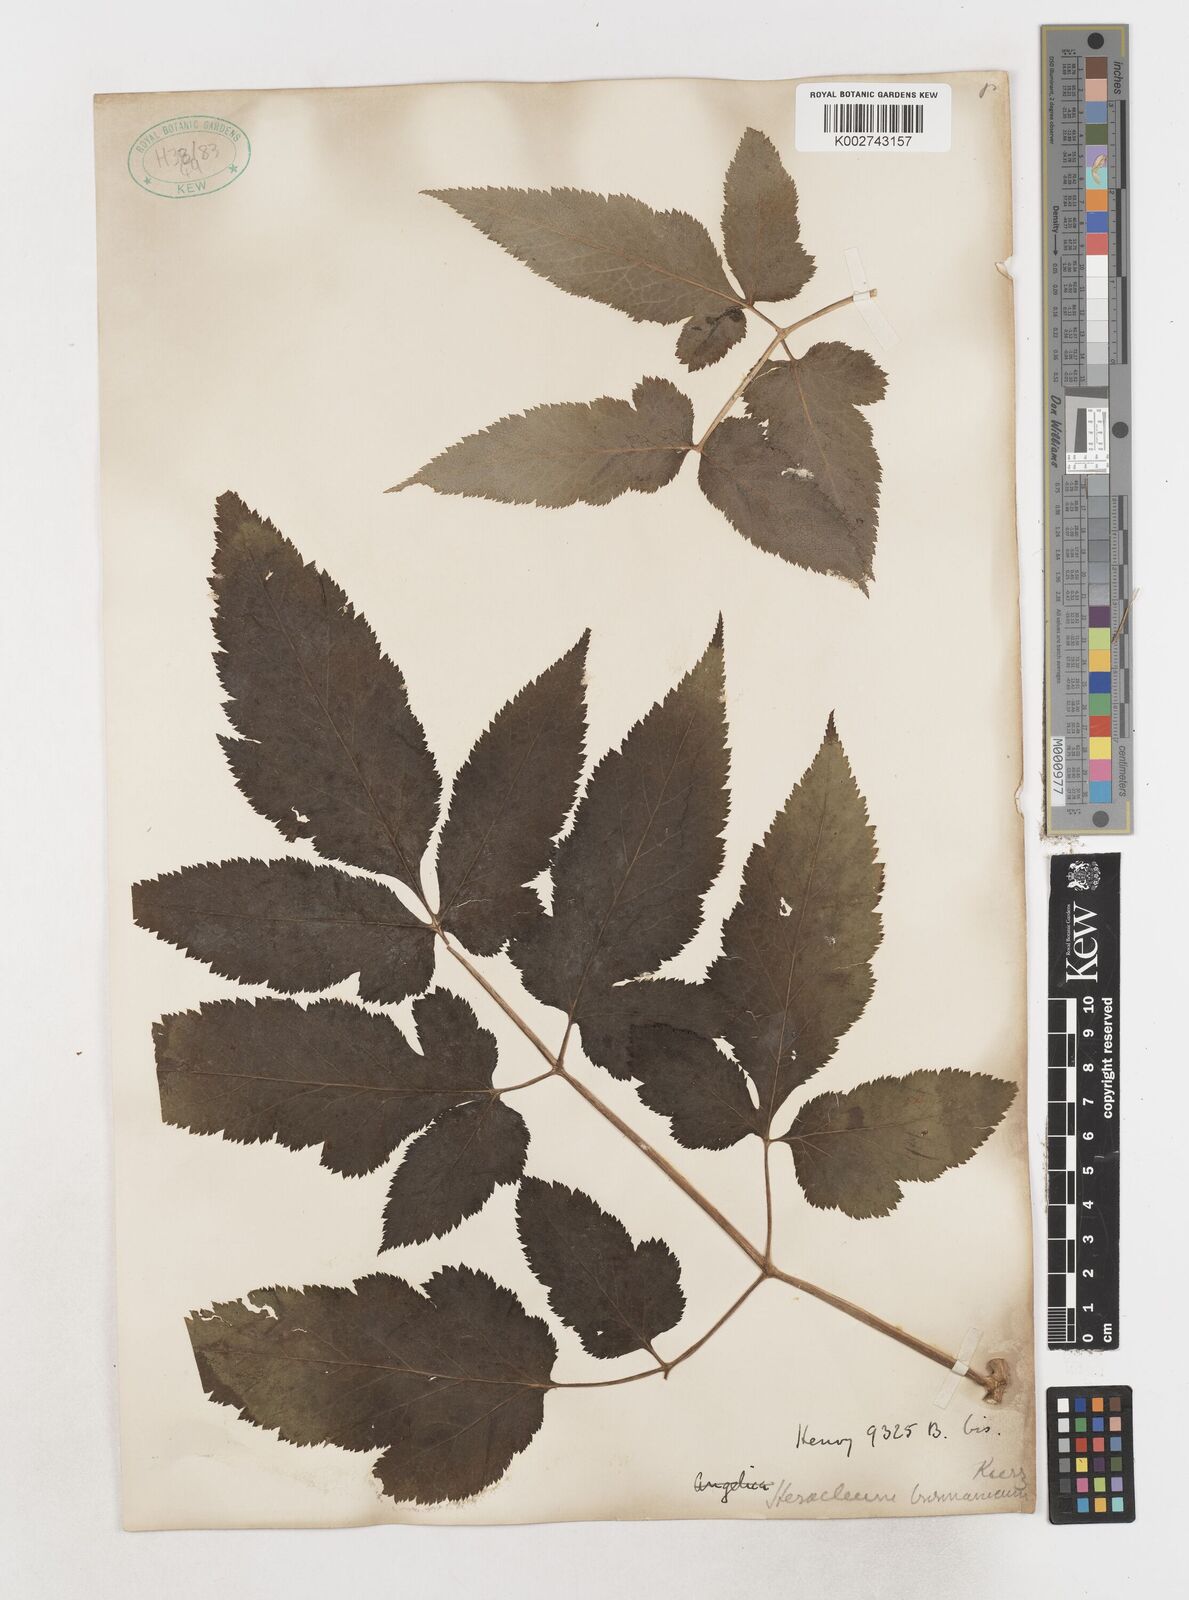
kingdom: Plantae
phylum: Tracheophyta
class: Magnoliopsida
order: Apiales
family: Apiaceae
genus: Tetrataenium
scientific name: Tetrataenium birmanicum
